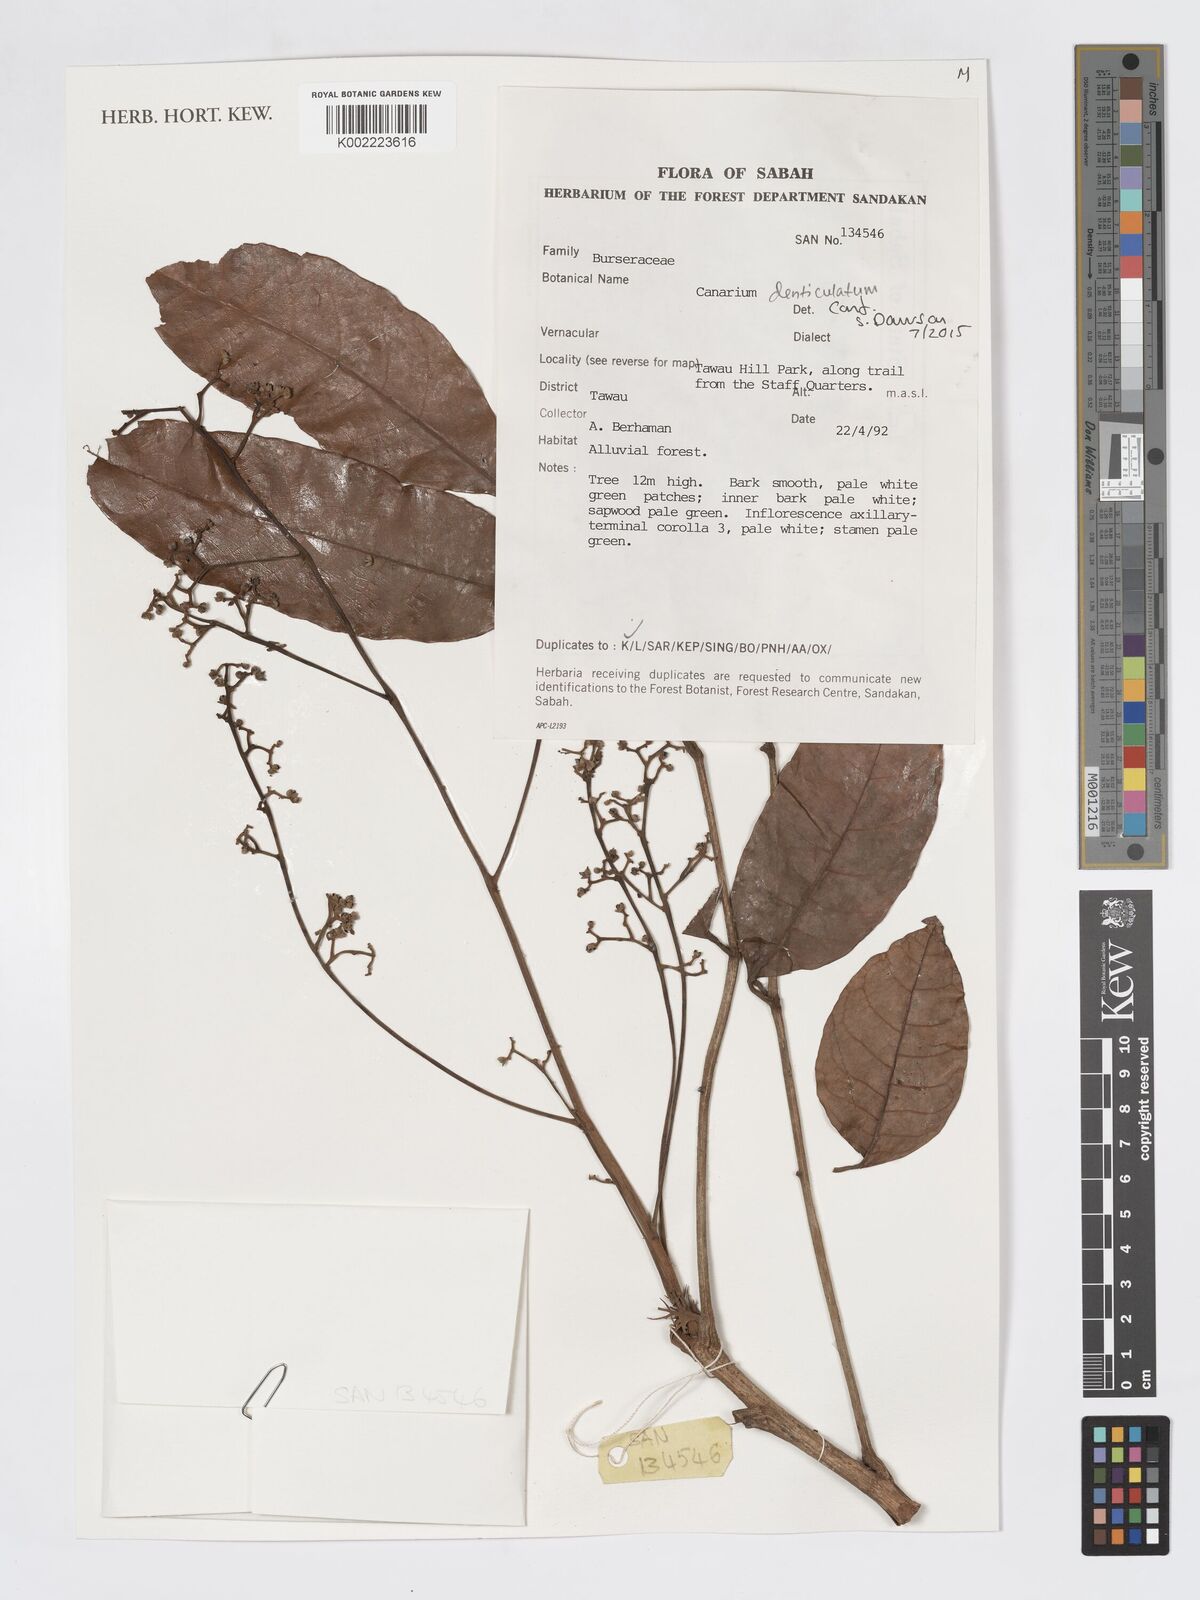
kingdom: Plantae
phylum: Tracheophyta
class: Magnoliopsida
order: Sapindales
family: Burseraceae
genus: Canarium
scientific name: Canarium denticulatum
